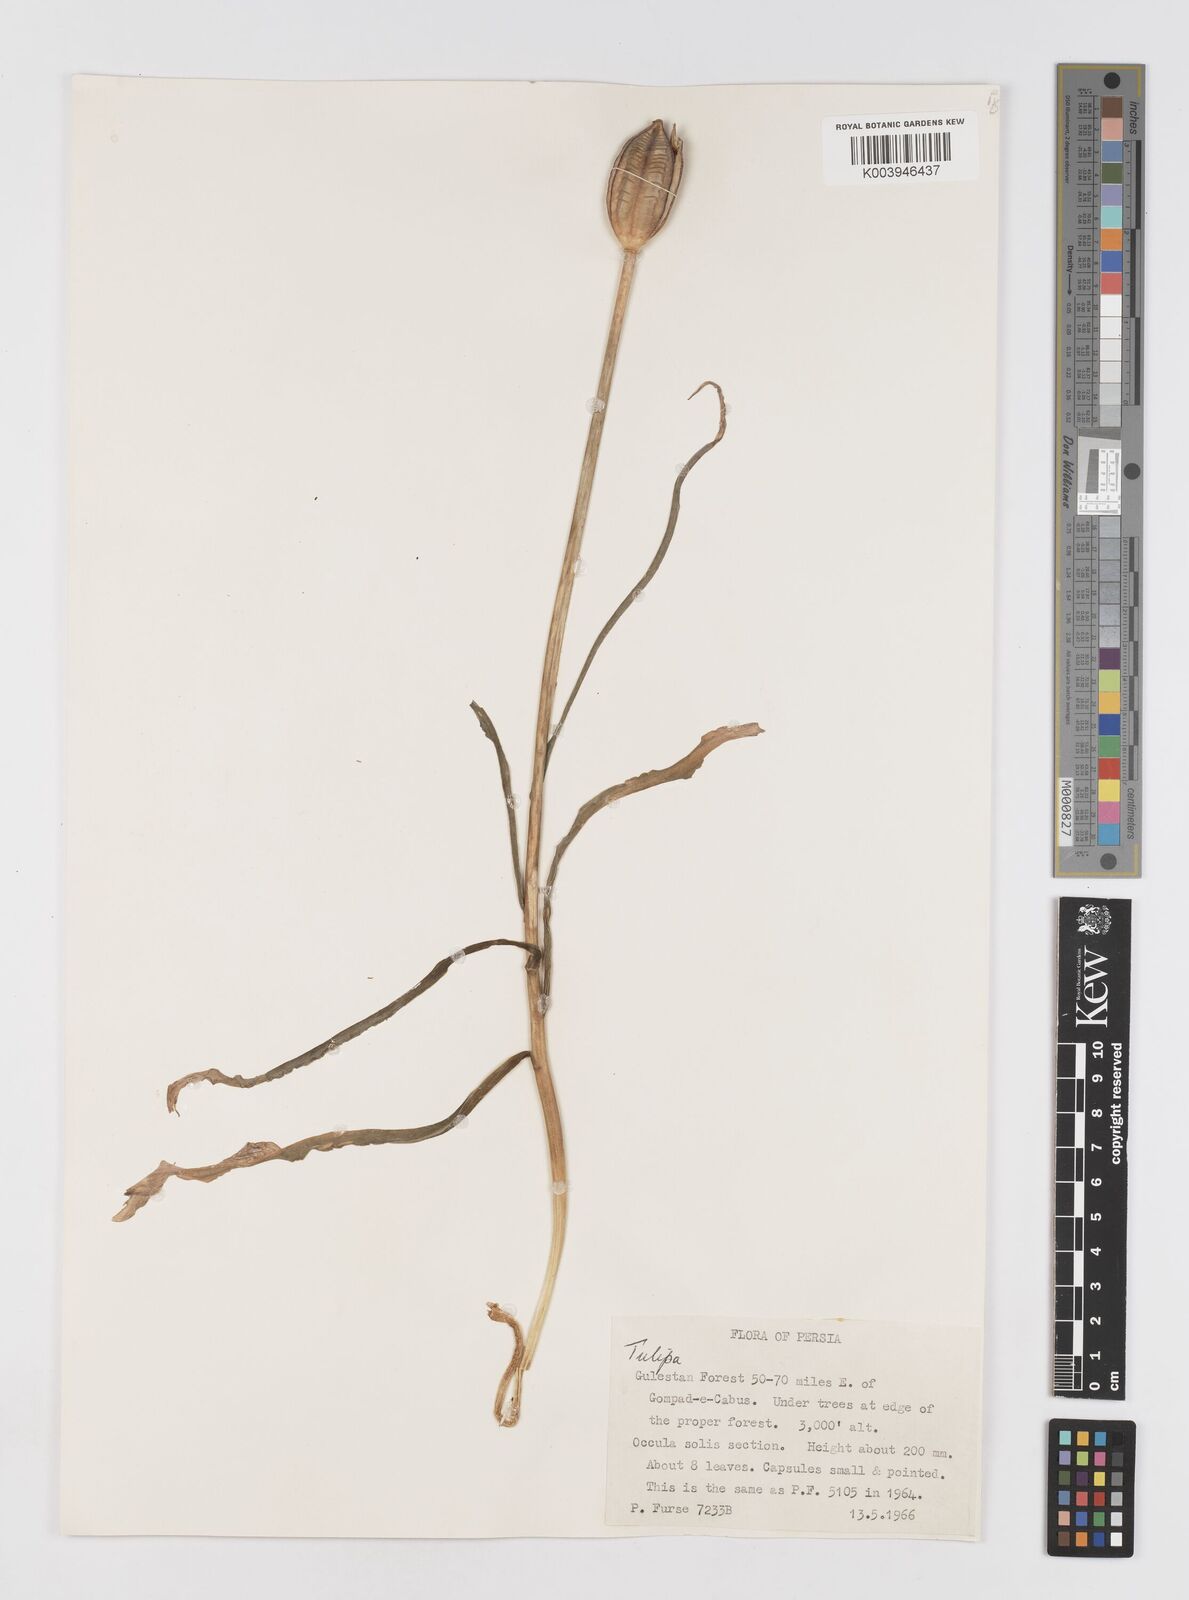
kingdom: Plantae
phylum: Tracheophyta
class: Liliopsida
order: Liliales
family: Liliaceae
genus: Tulipa
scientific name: Tulipa
